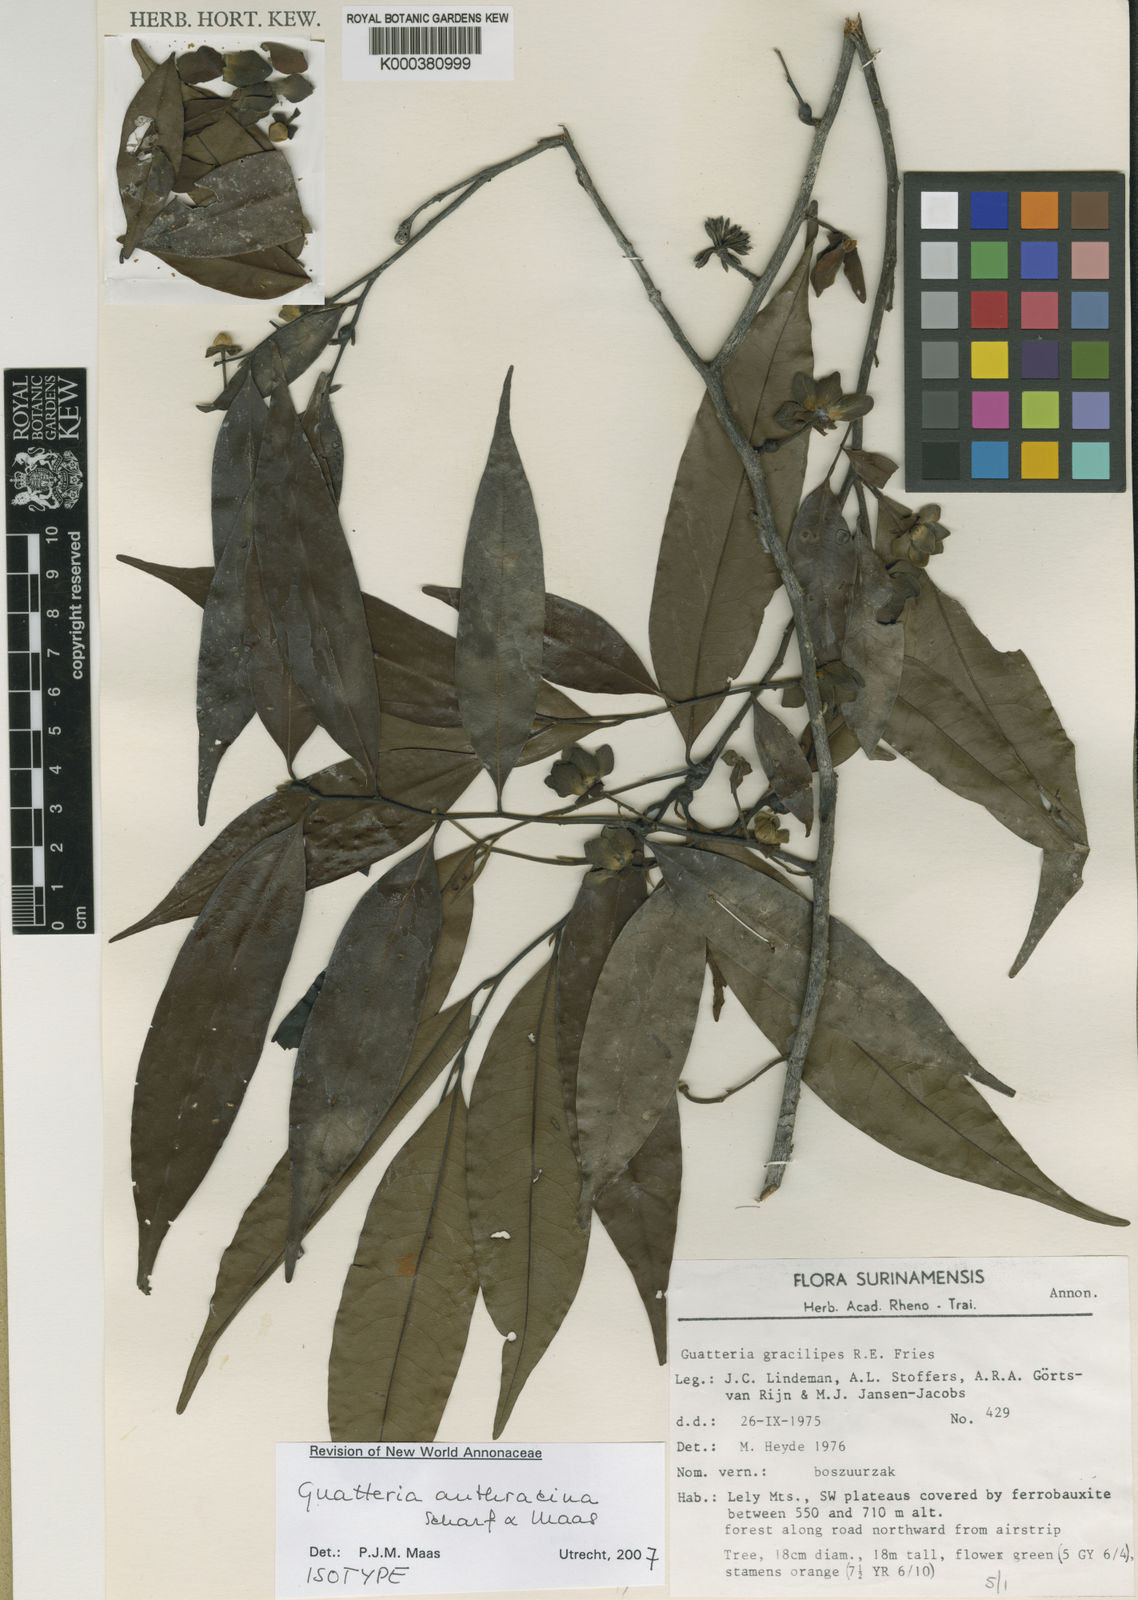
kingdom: Plantae
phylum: Tracheophyta
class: Magnoliopsida
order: Magnoliales
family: Annonaceae
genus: Guatteria
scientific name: Guatteria anthracina
